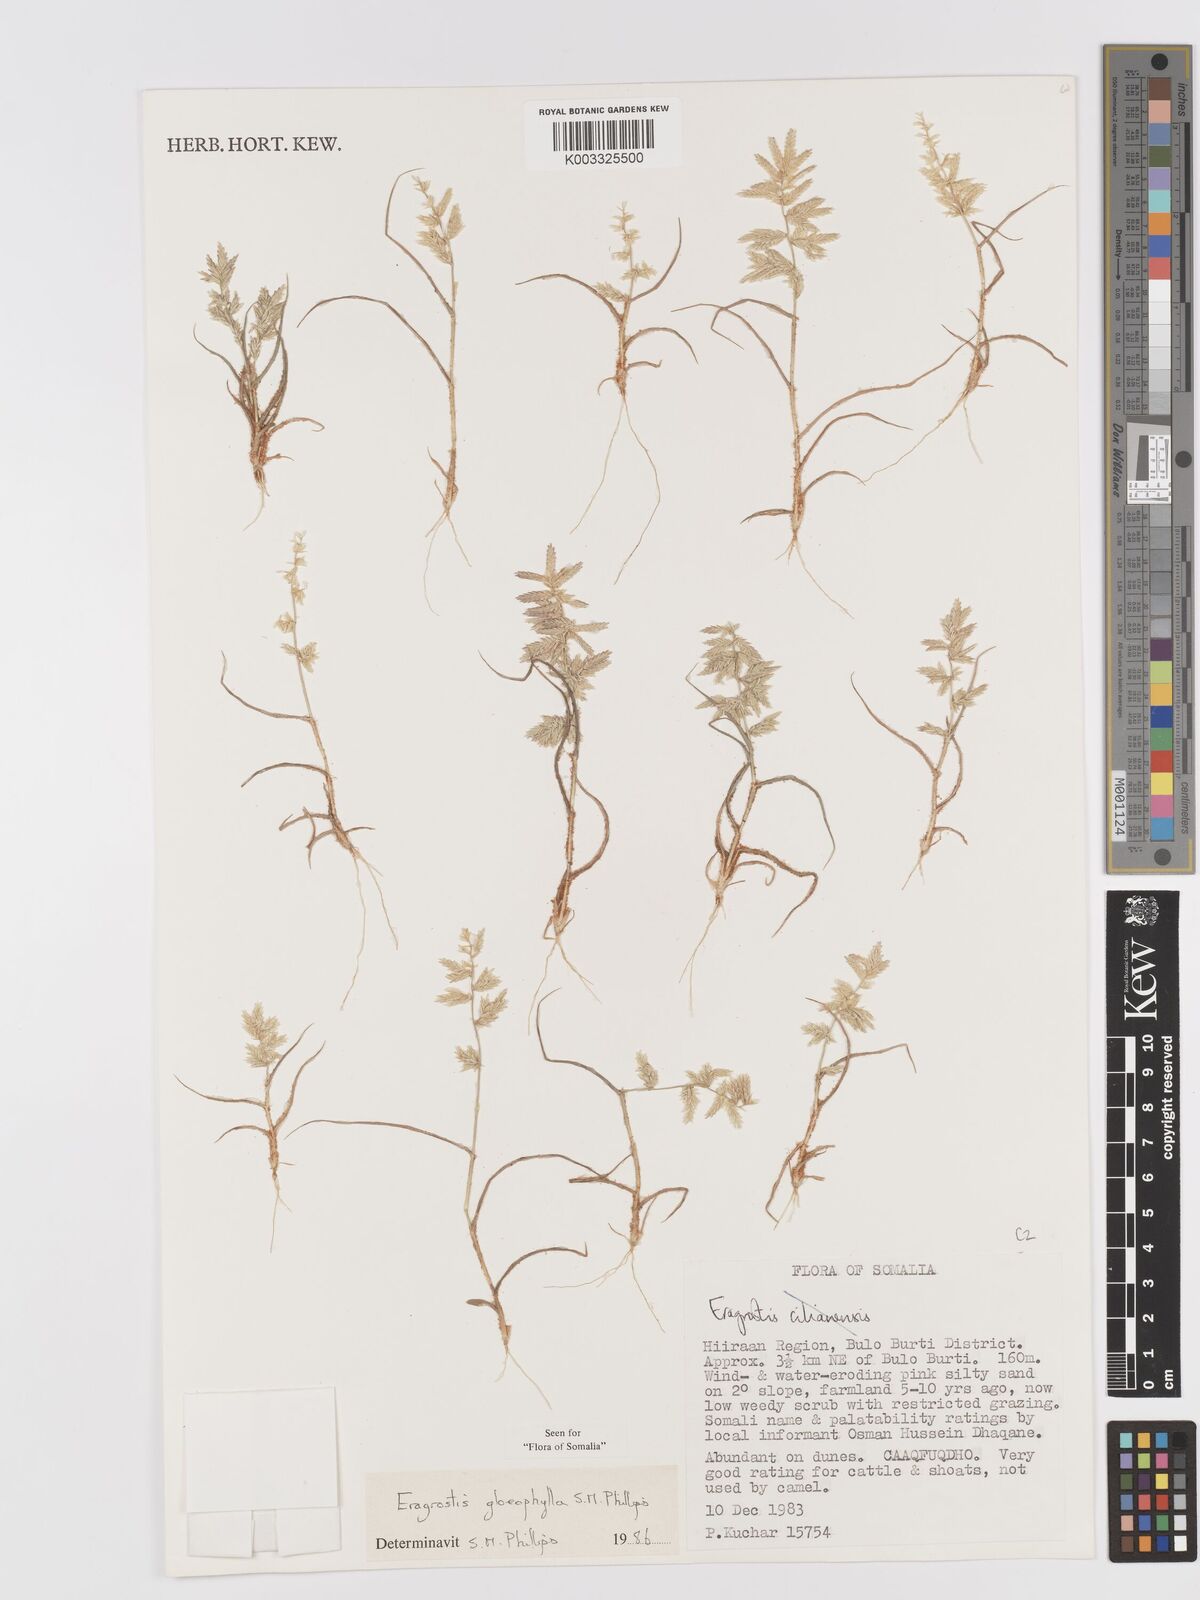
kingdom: Plantae
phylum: Tracheophyta
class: Liliopsida
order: Poales
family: Poaceae
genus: Eragrostis
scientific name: Eragrostis gloeophylla
